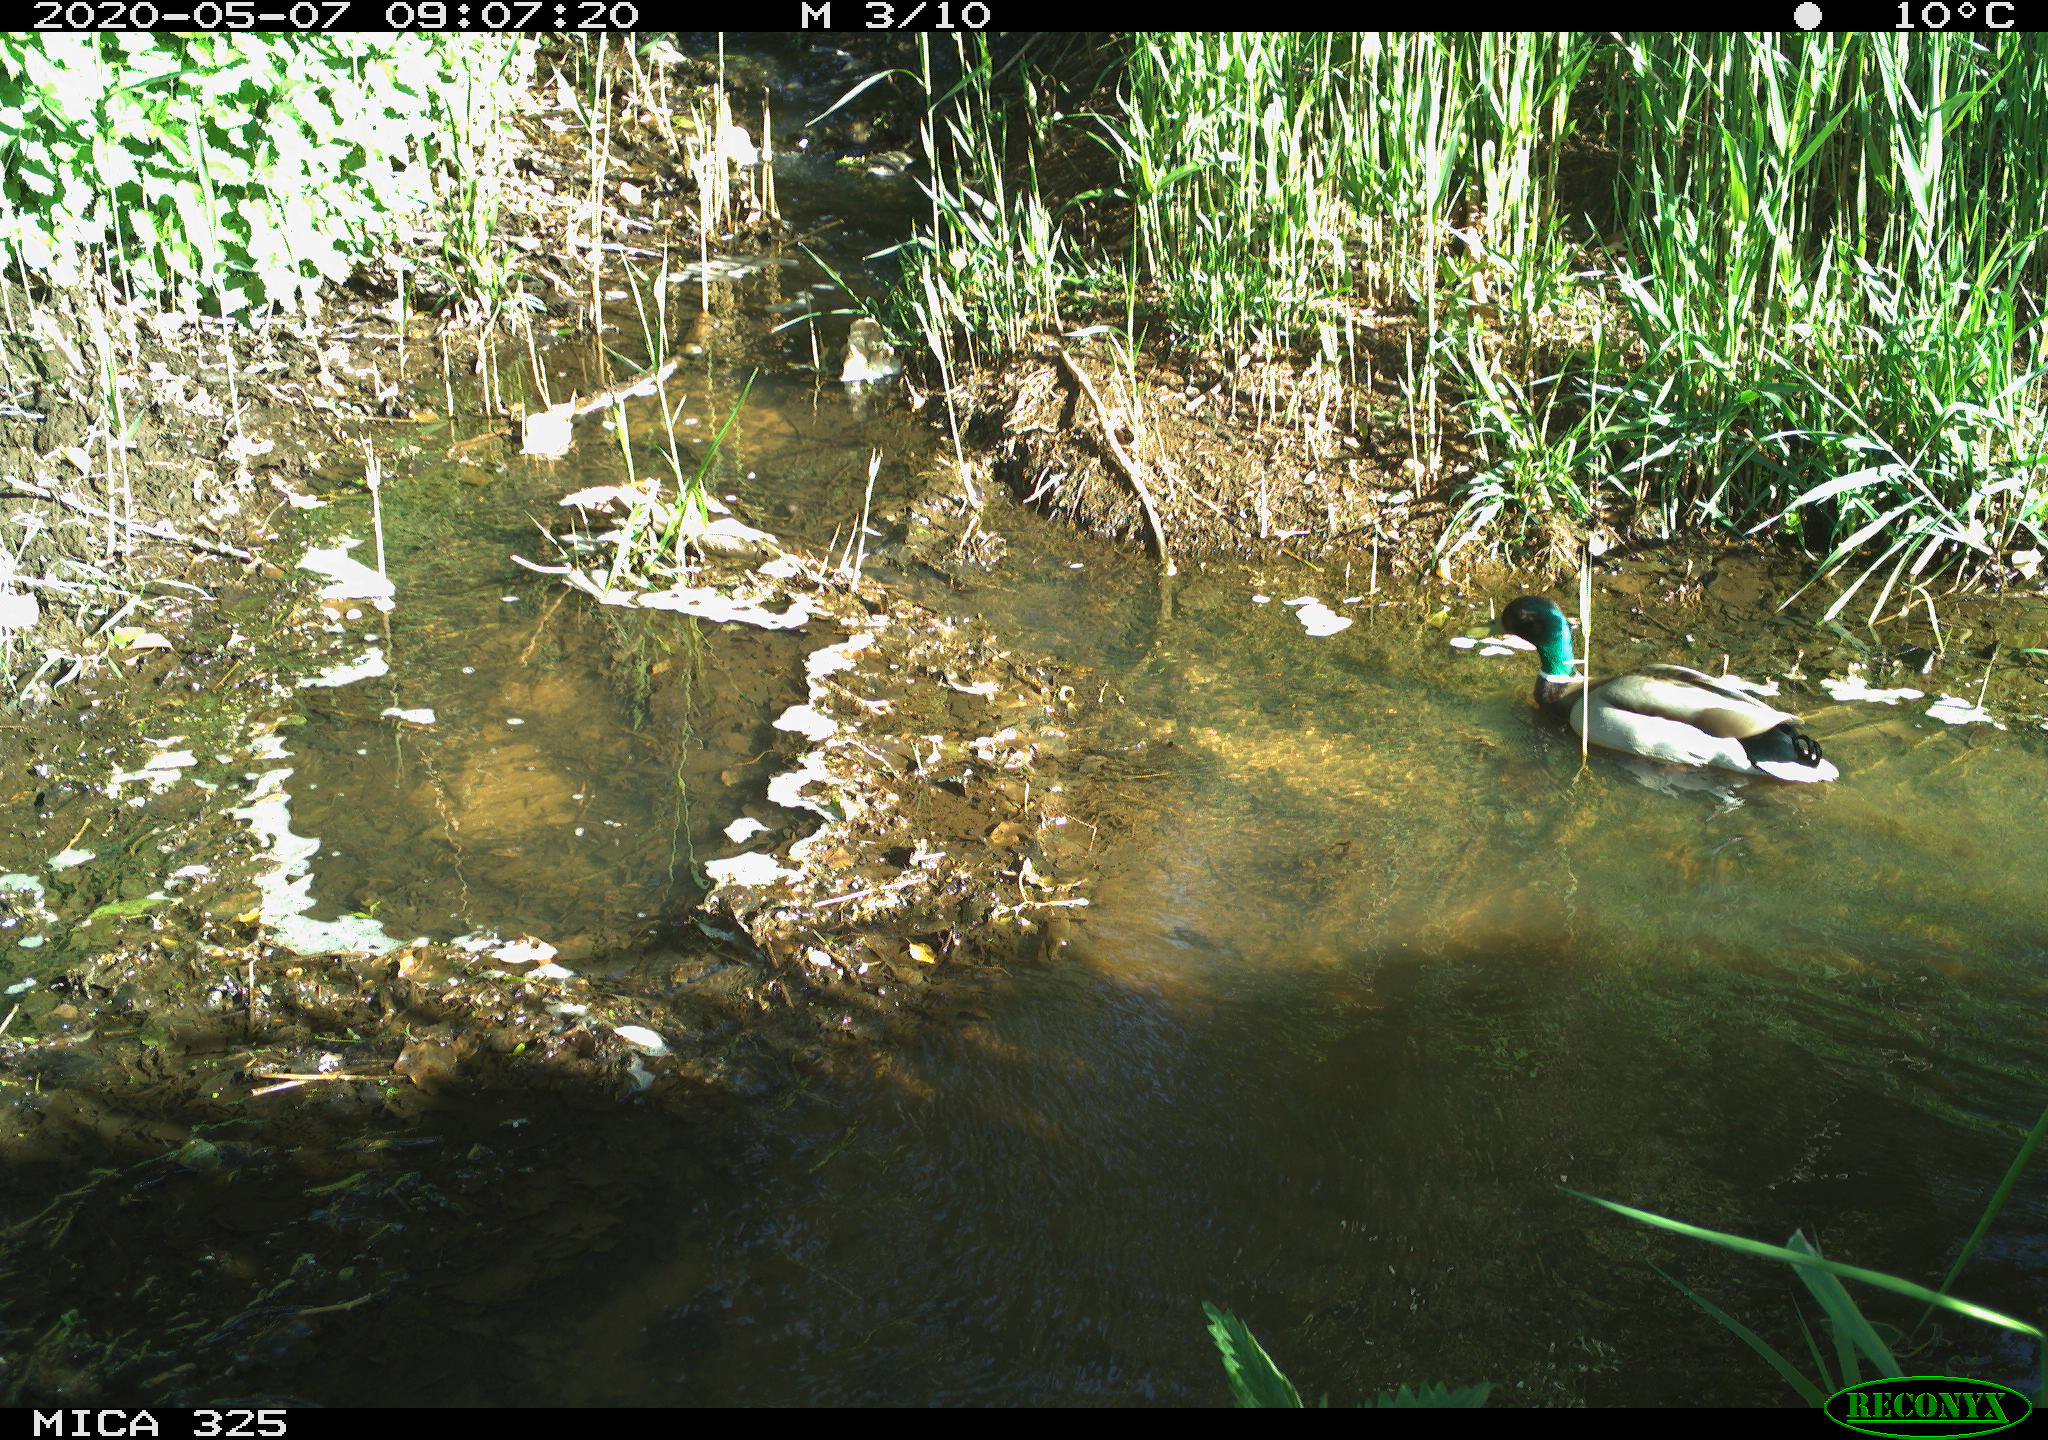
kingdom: Animalia
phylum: Chordata
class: Aves
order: Anseriformes
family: Anatidae
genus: Anas
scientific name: Anas platyrhynchos
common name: Mallard
